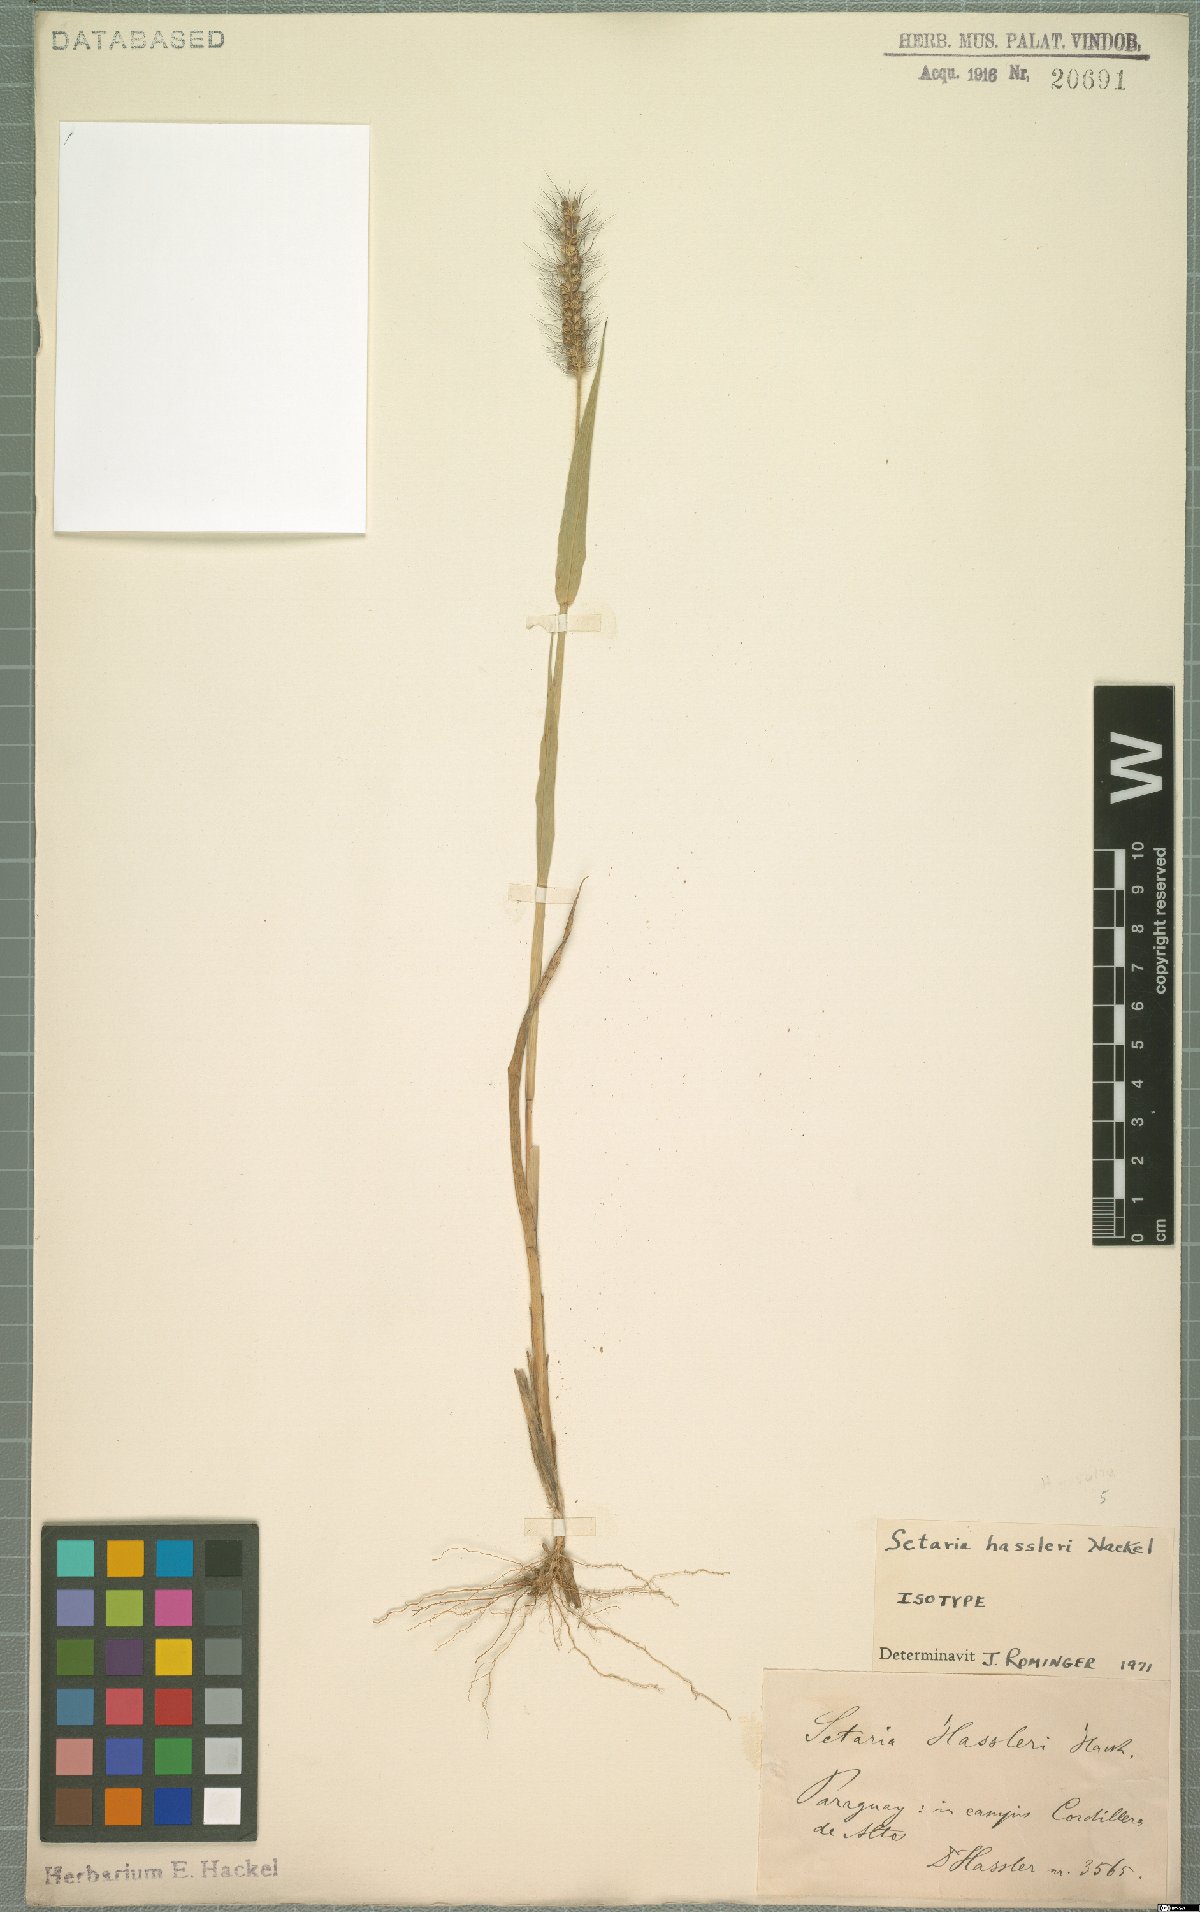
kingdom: Plantae
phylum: Tracheophyta
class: Liliopsida
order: Poales
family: Poaceae
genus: Setaria
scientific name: Setaria hassleri
